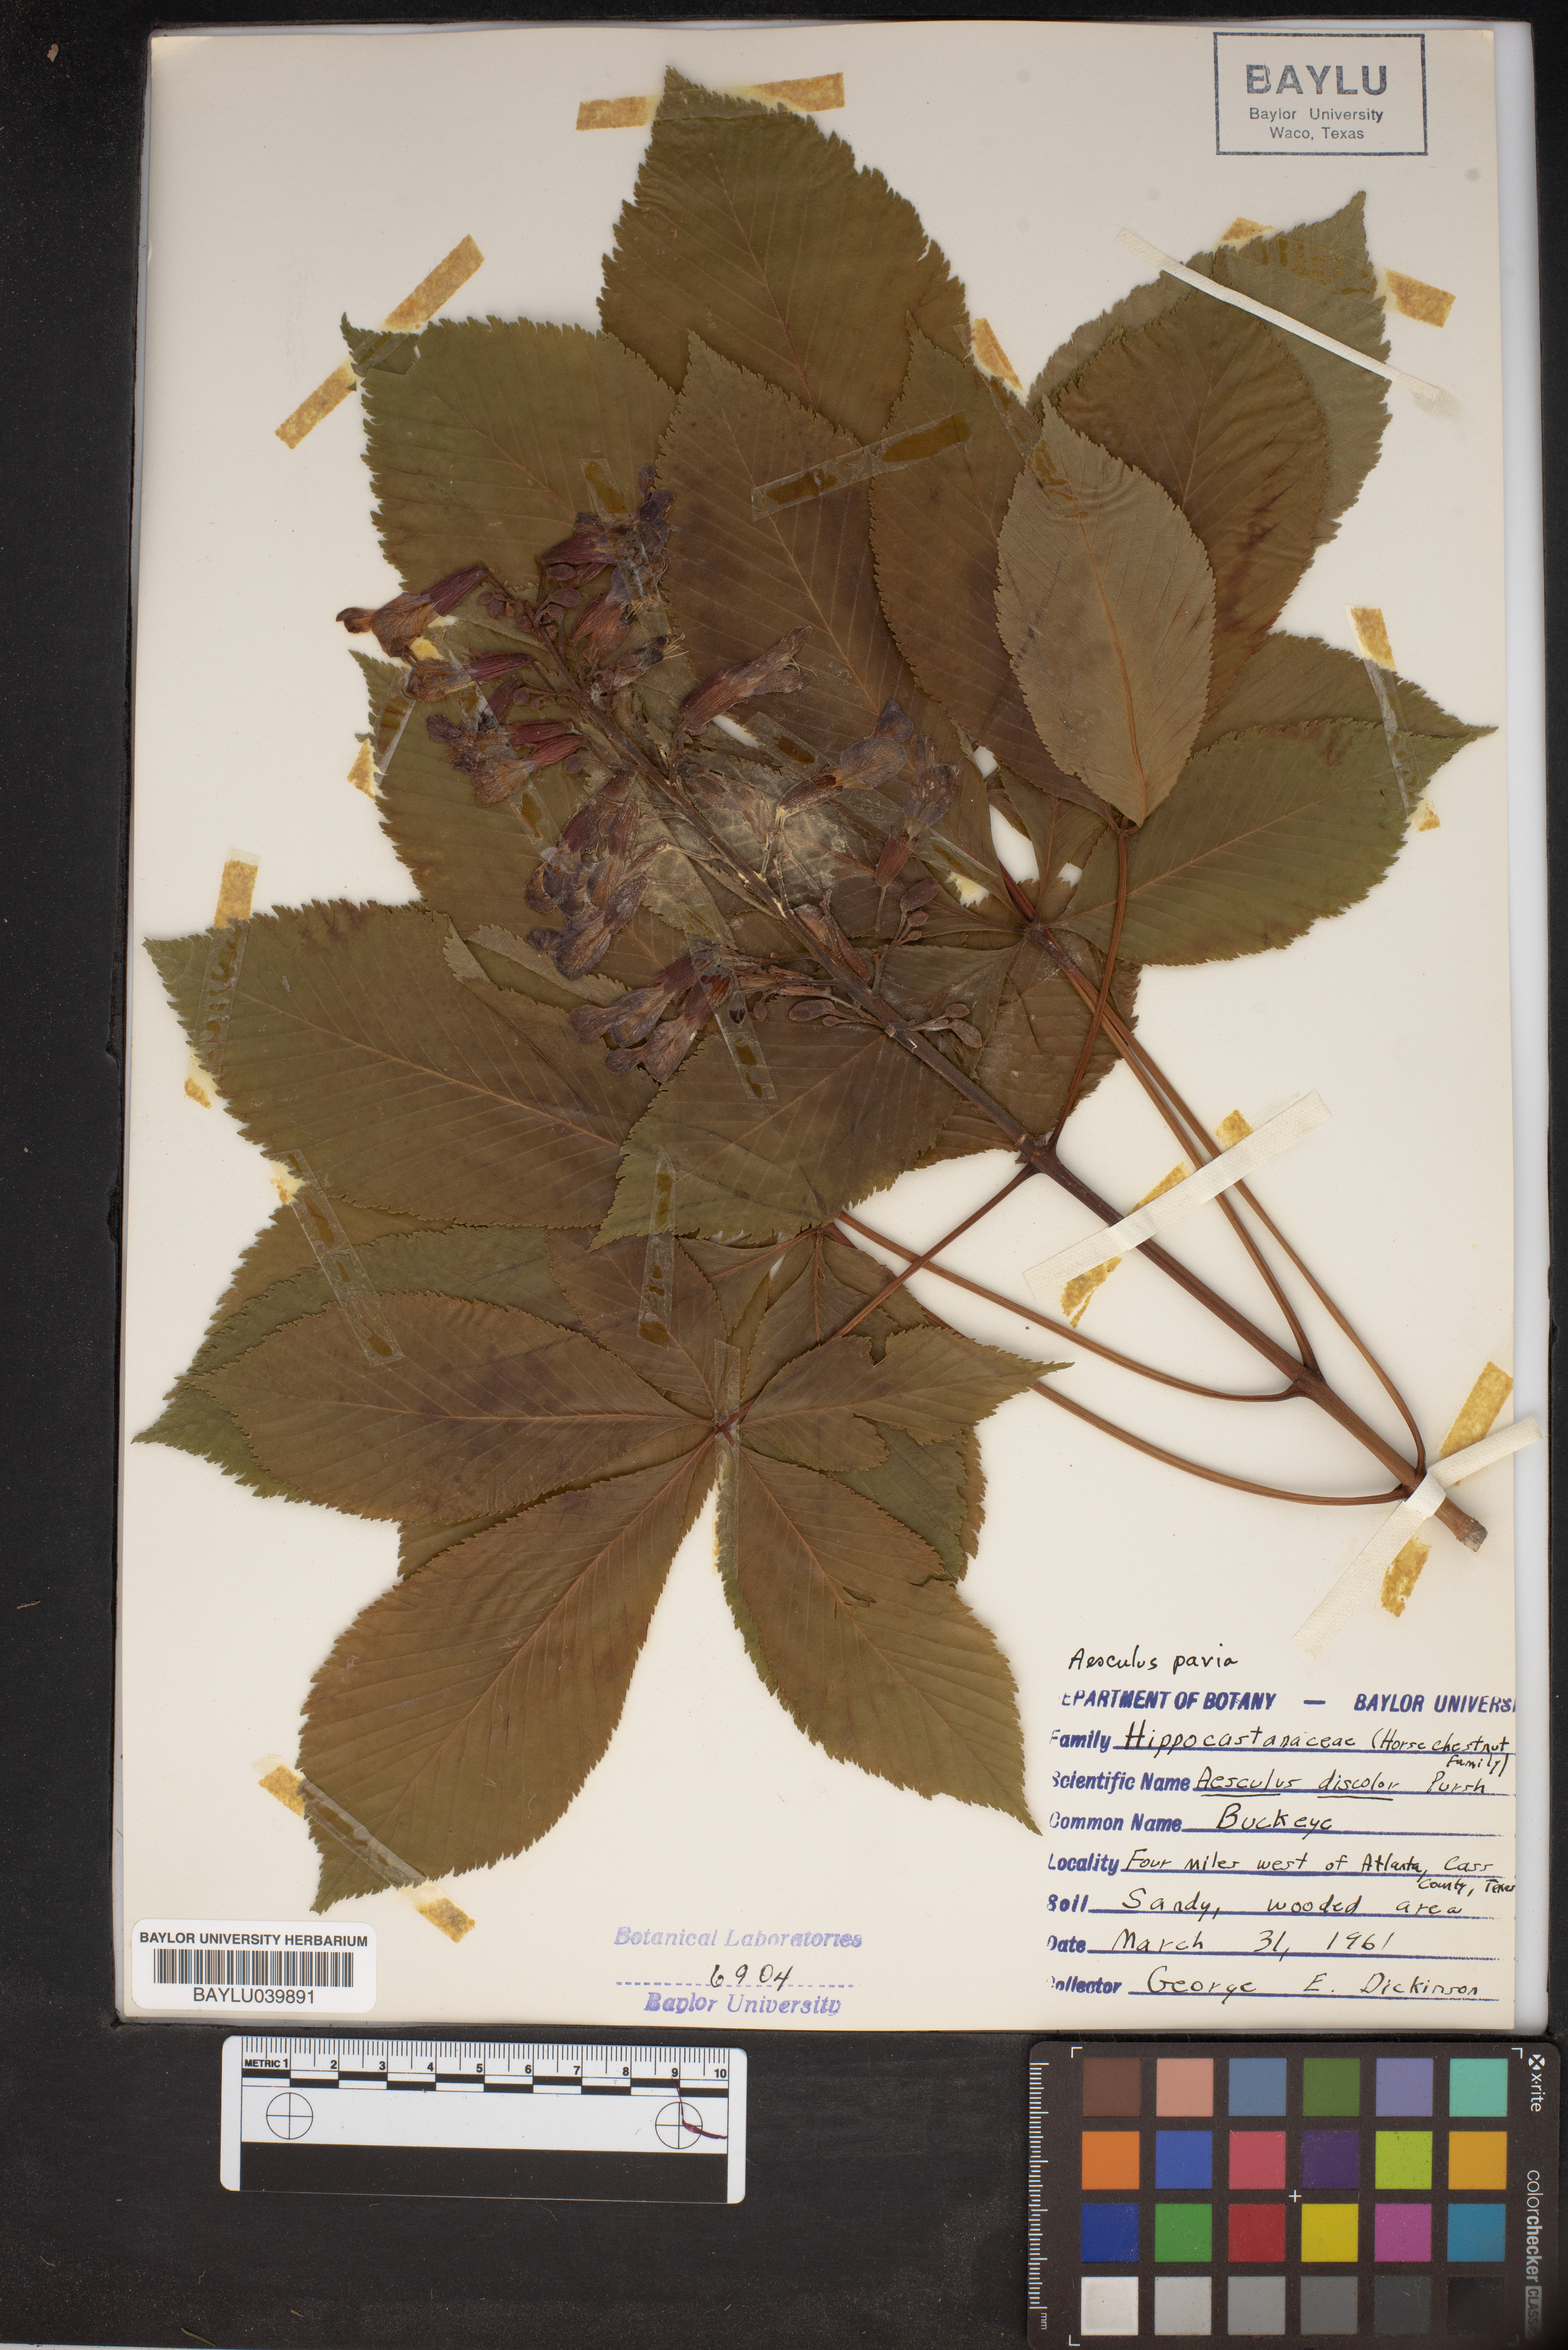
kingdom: Plantae
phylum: Tracheophyta
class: Magnoliopsida
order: Sapindales
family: Sapindaceae
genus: Aesculus
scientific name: Aesculus pavia
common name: Red buckeye
